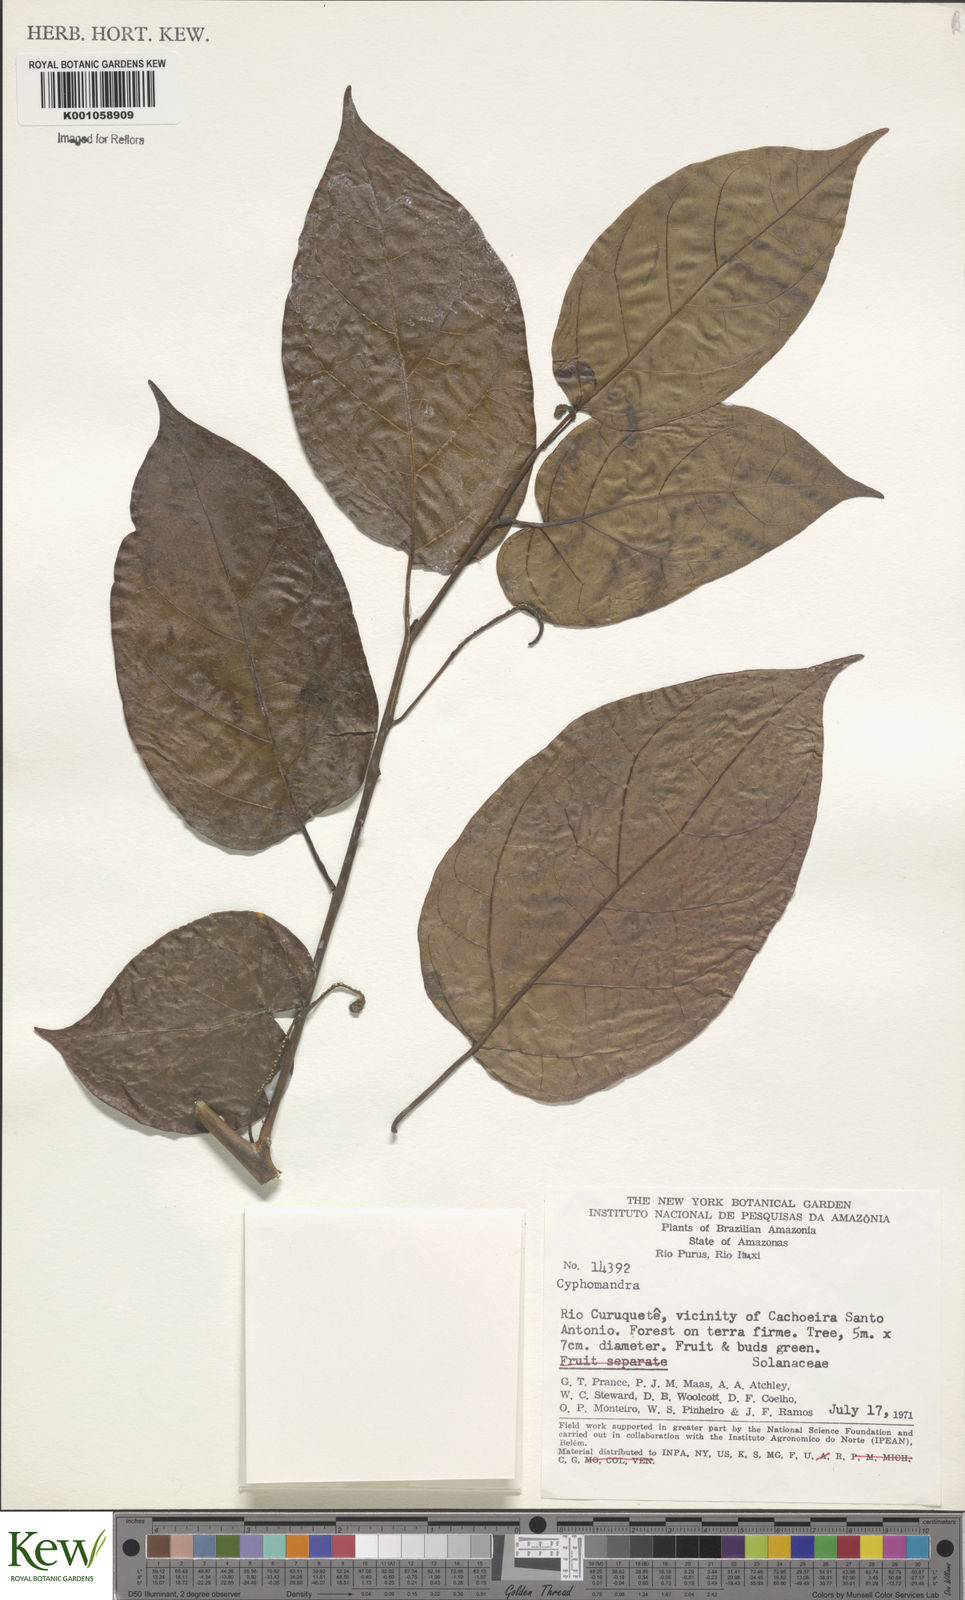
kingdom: Plantae
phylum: Tracheophyta
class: Magnoliopsida
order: Solanales
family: Solanaceae
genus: Solanum
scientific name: Solanum endopogon
